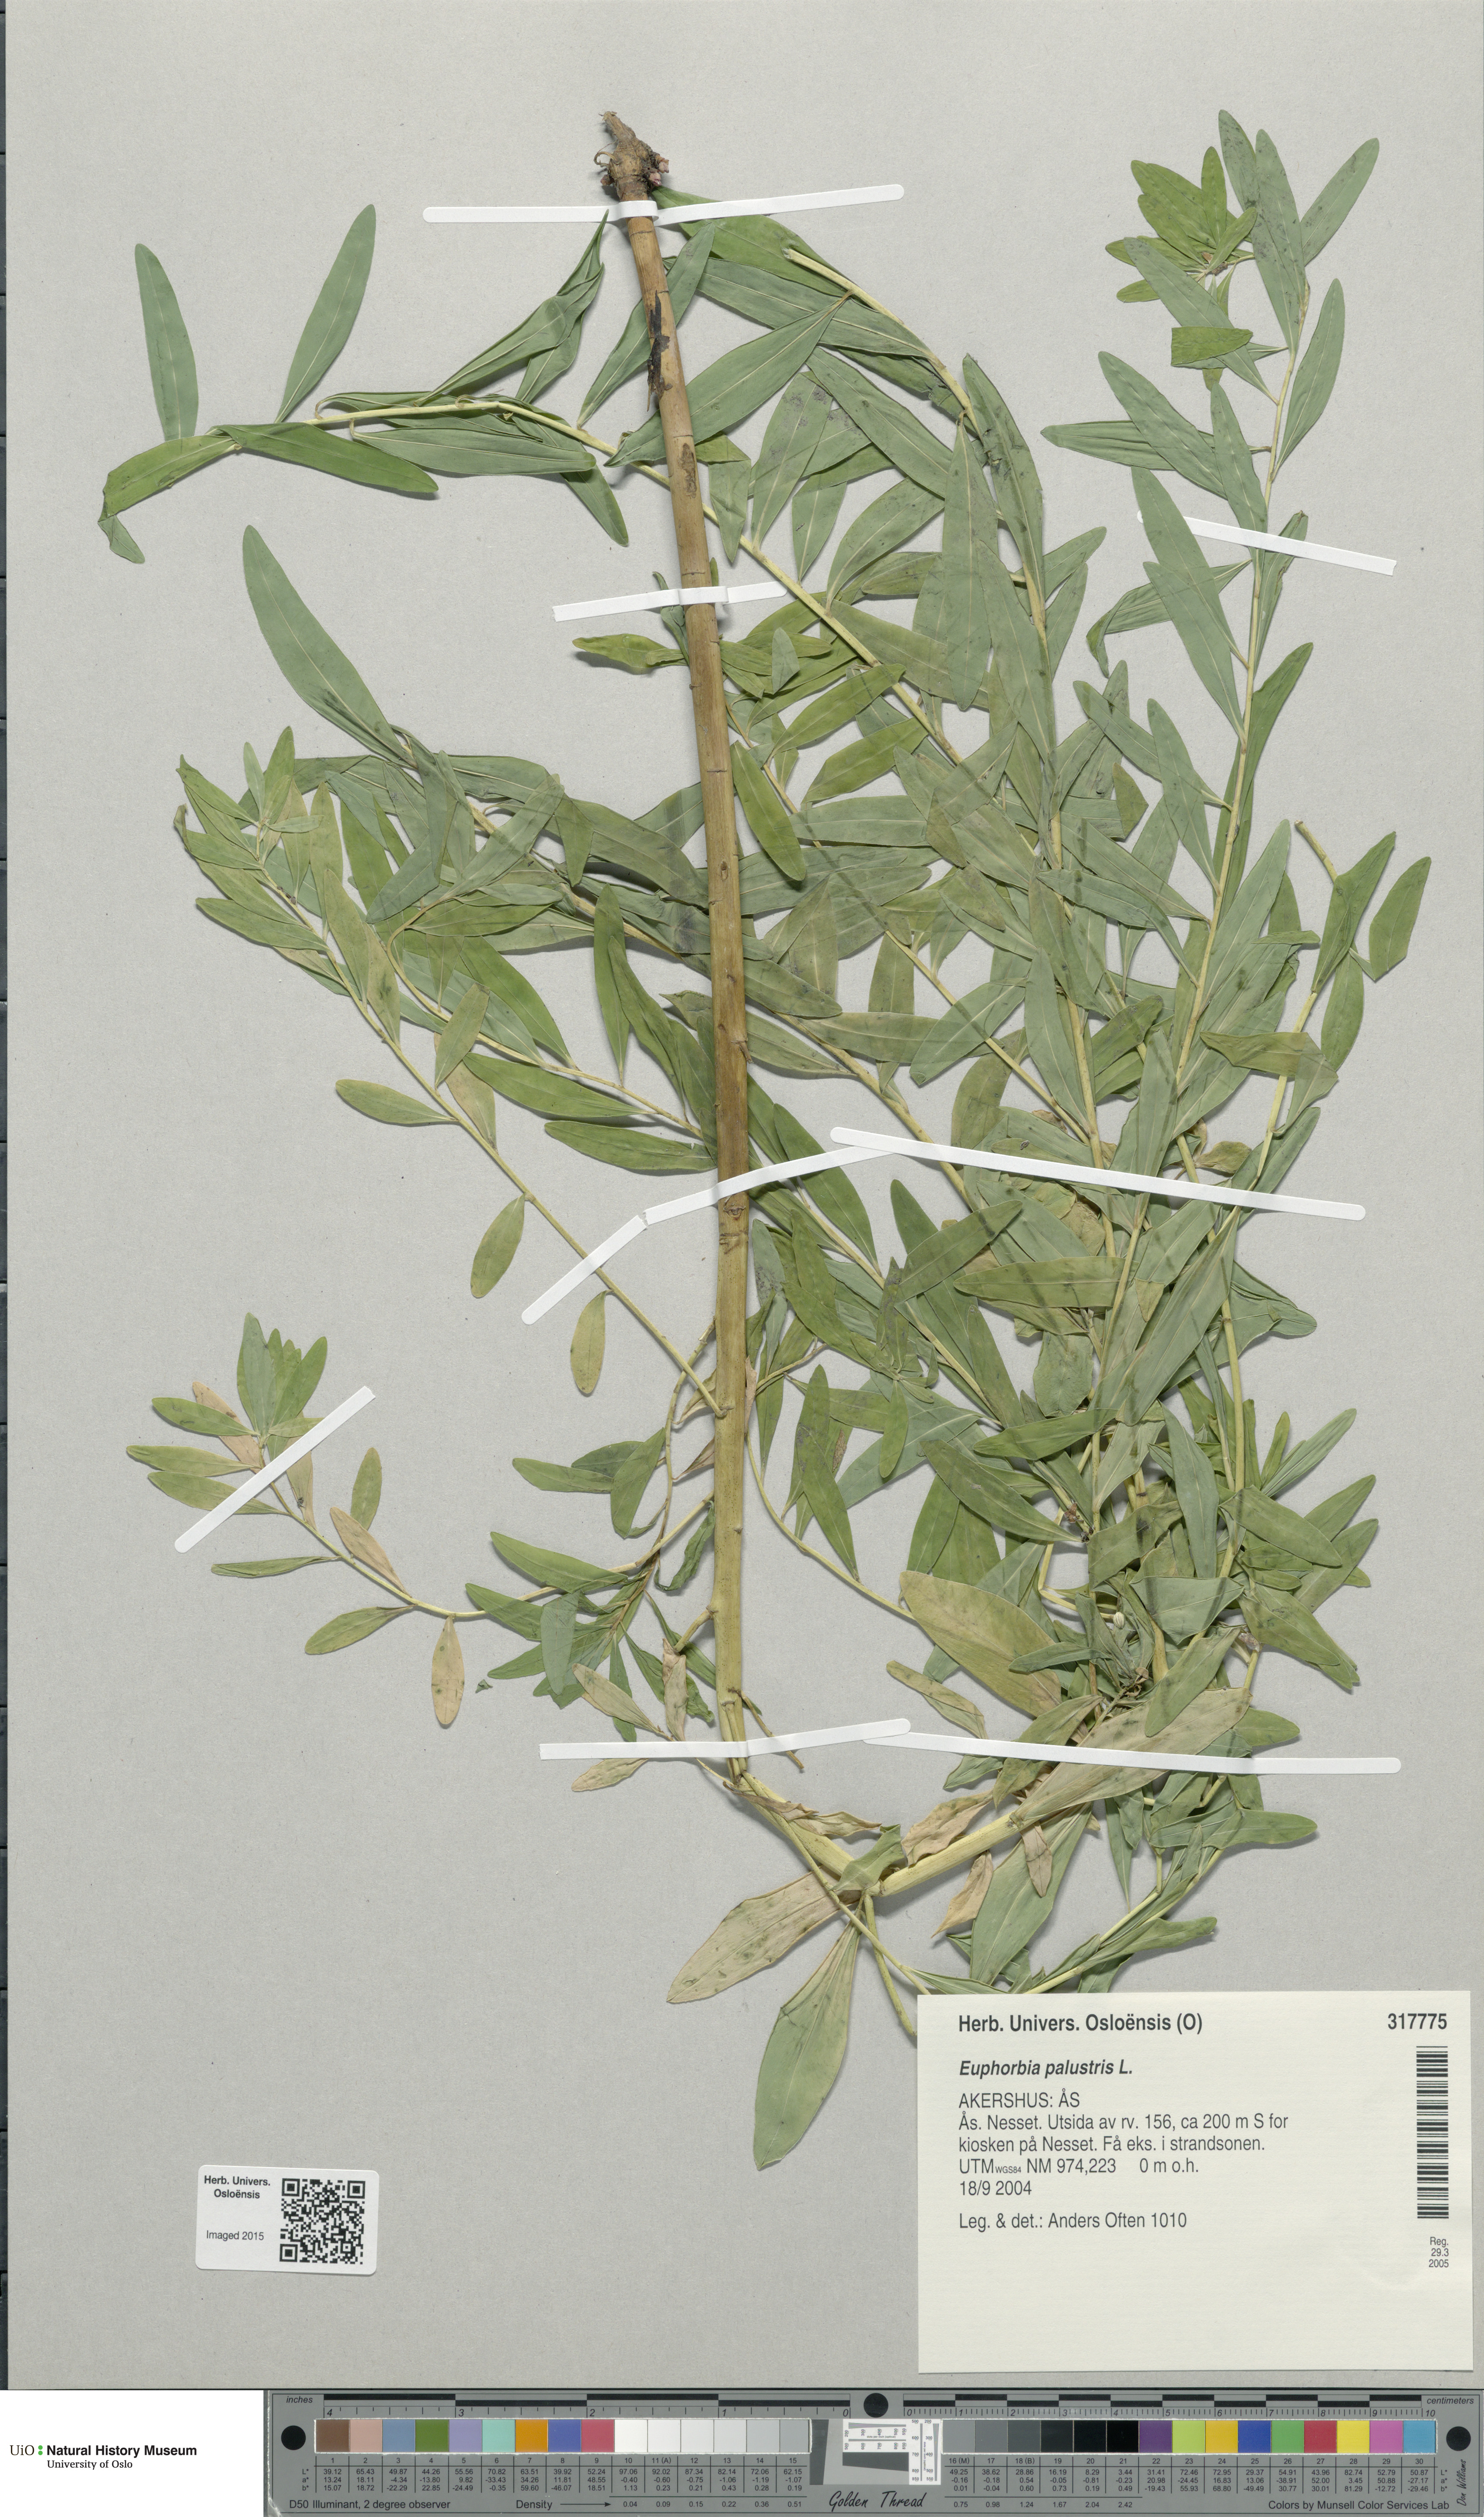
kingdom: Plantae
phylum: Tracheophyta
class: Magnoliopsida
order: Malpighiales
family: Euphorbiaceae
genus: Euphorbia
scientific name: Euphorbia palustris
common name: Marsh spurge
